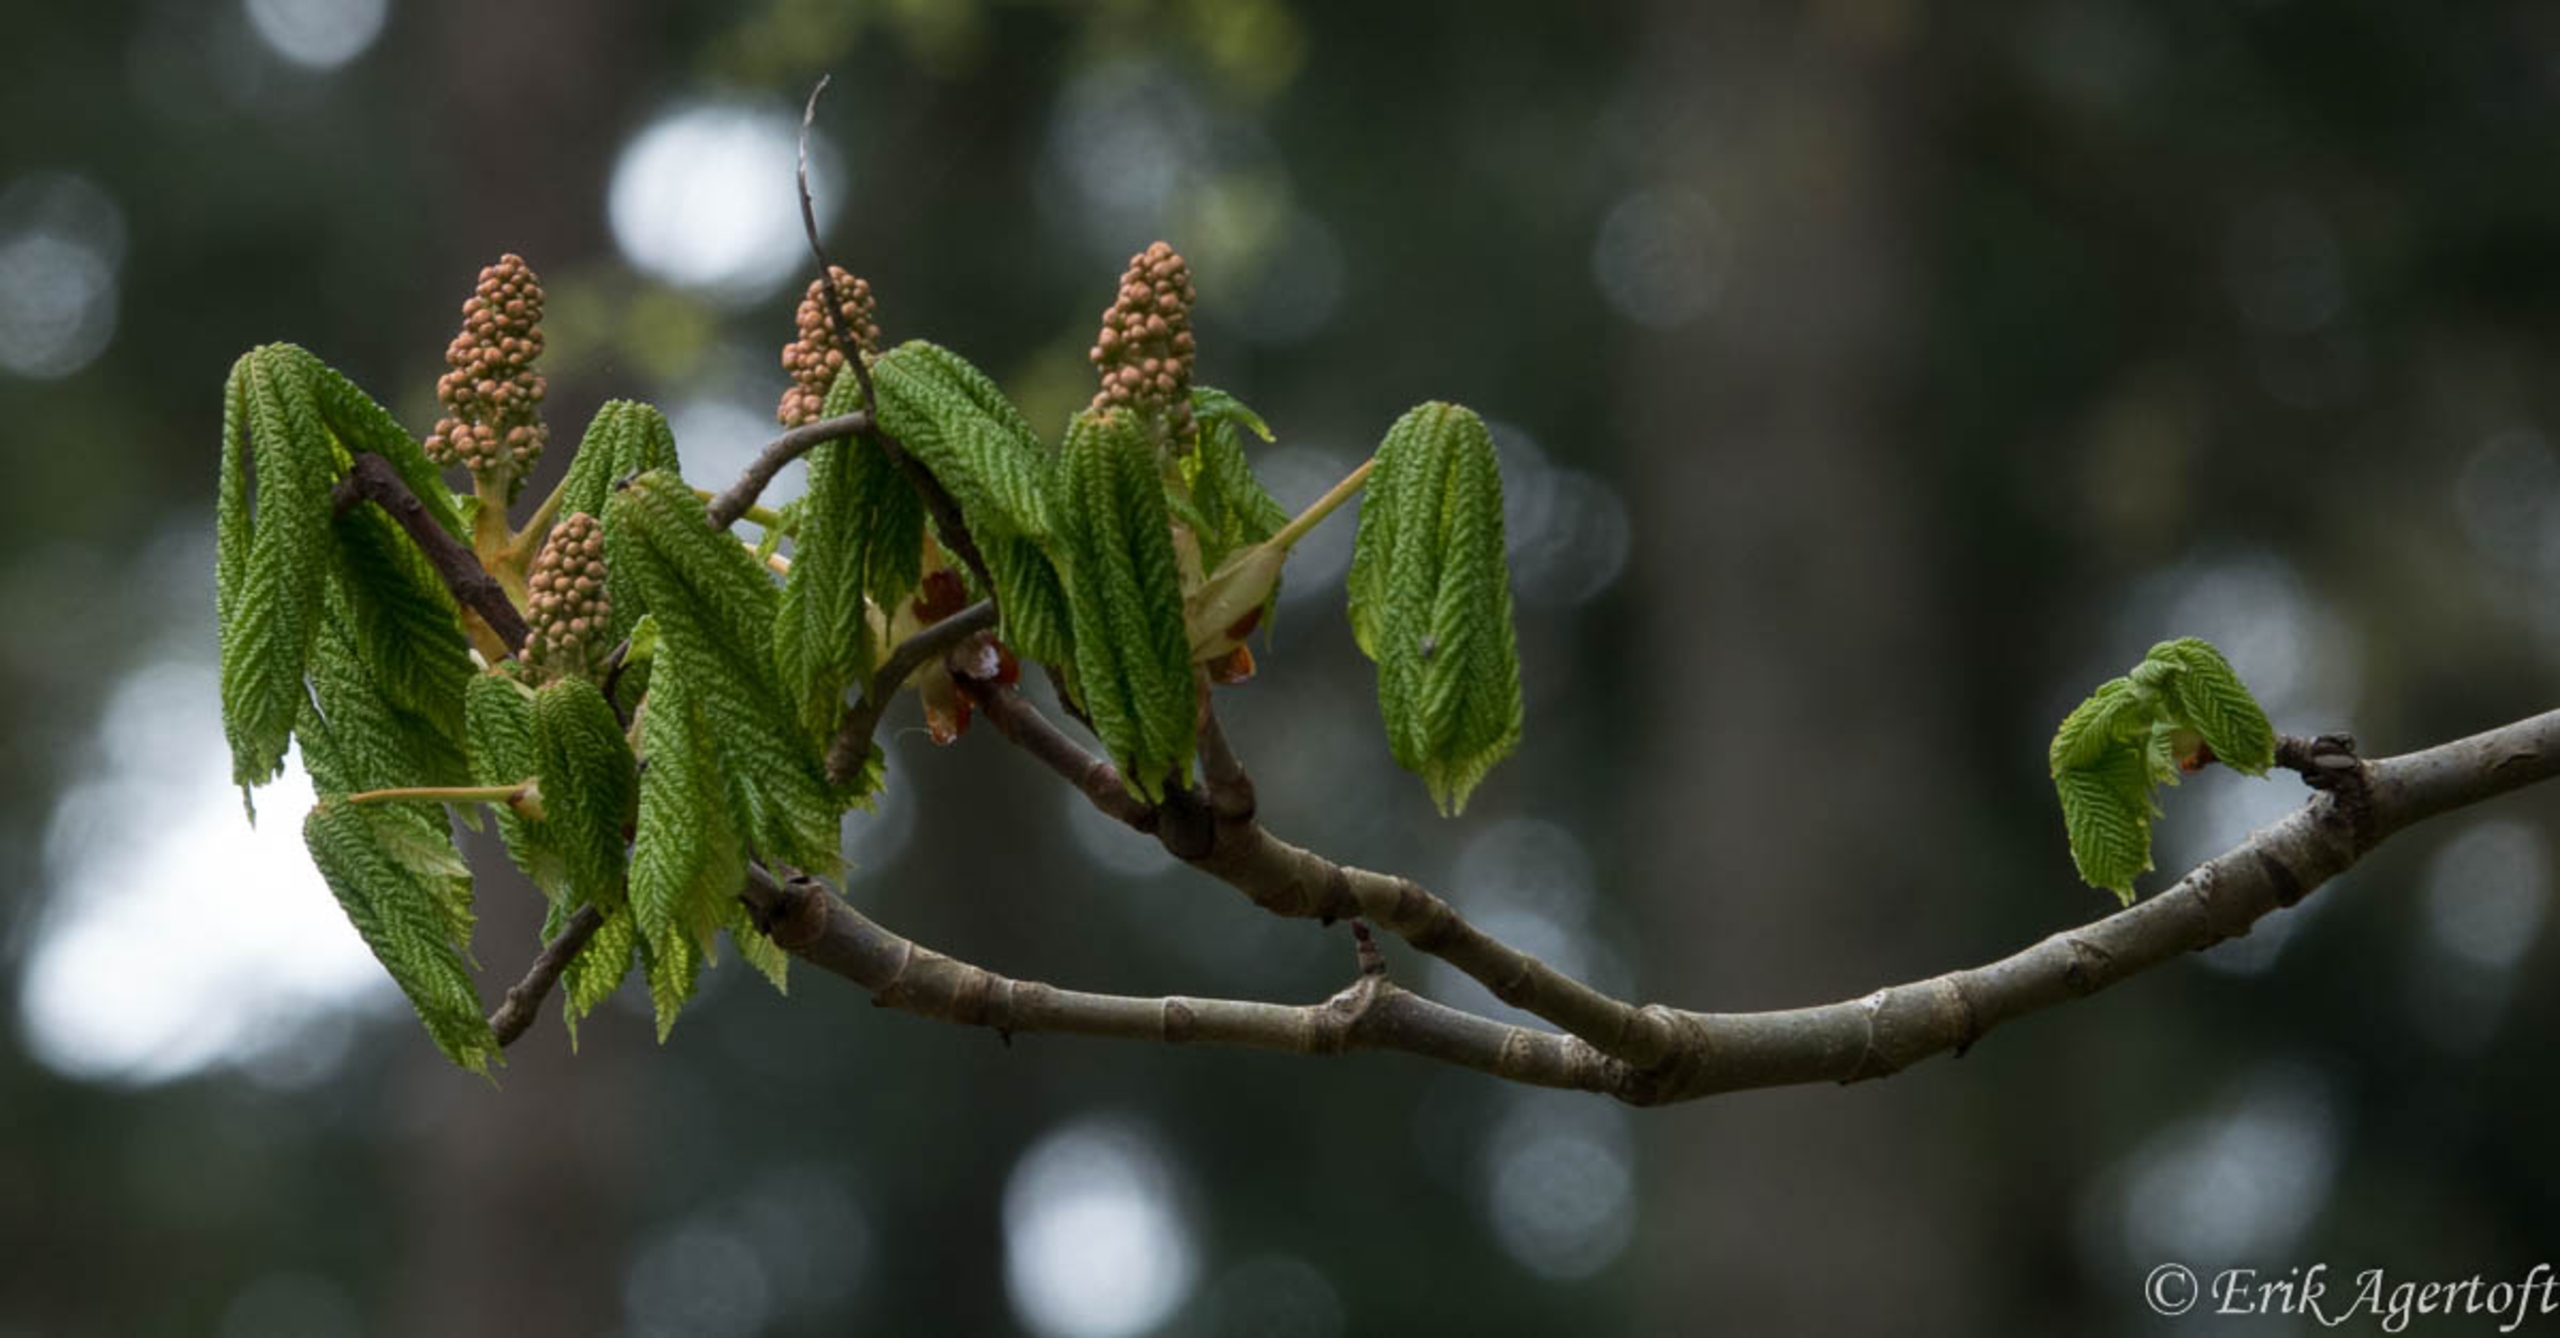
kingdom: Plantae
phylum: Tracheophyta
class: Magnoliopsida
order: Sapindales
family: Sapindaceae
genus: Aesculus
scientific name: Aesculus hippocastanum
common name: Hestekastanie
